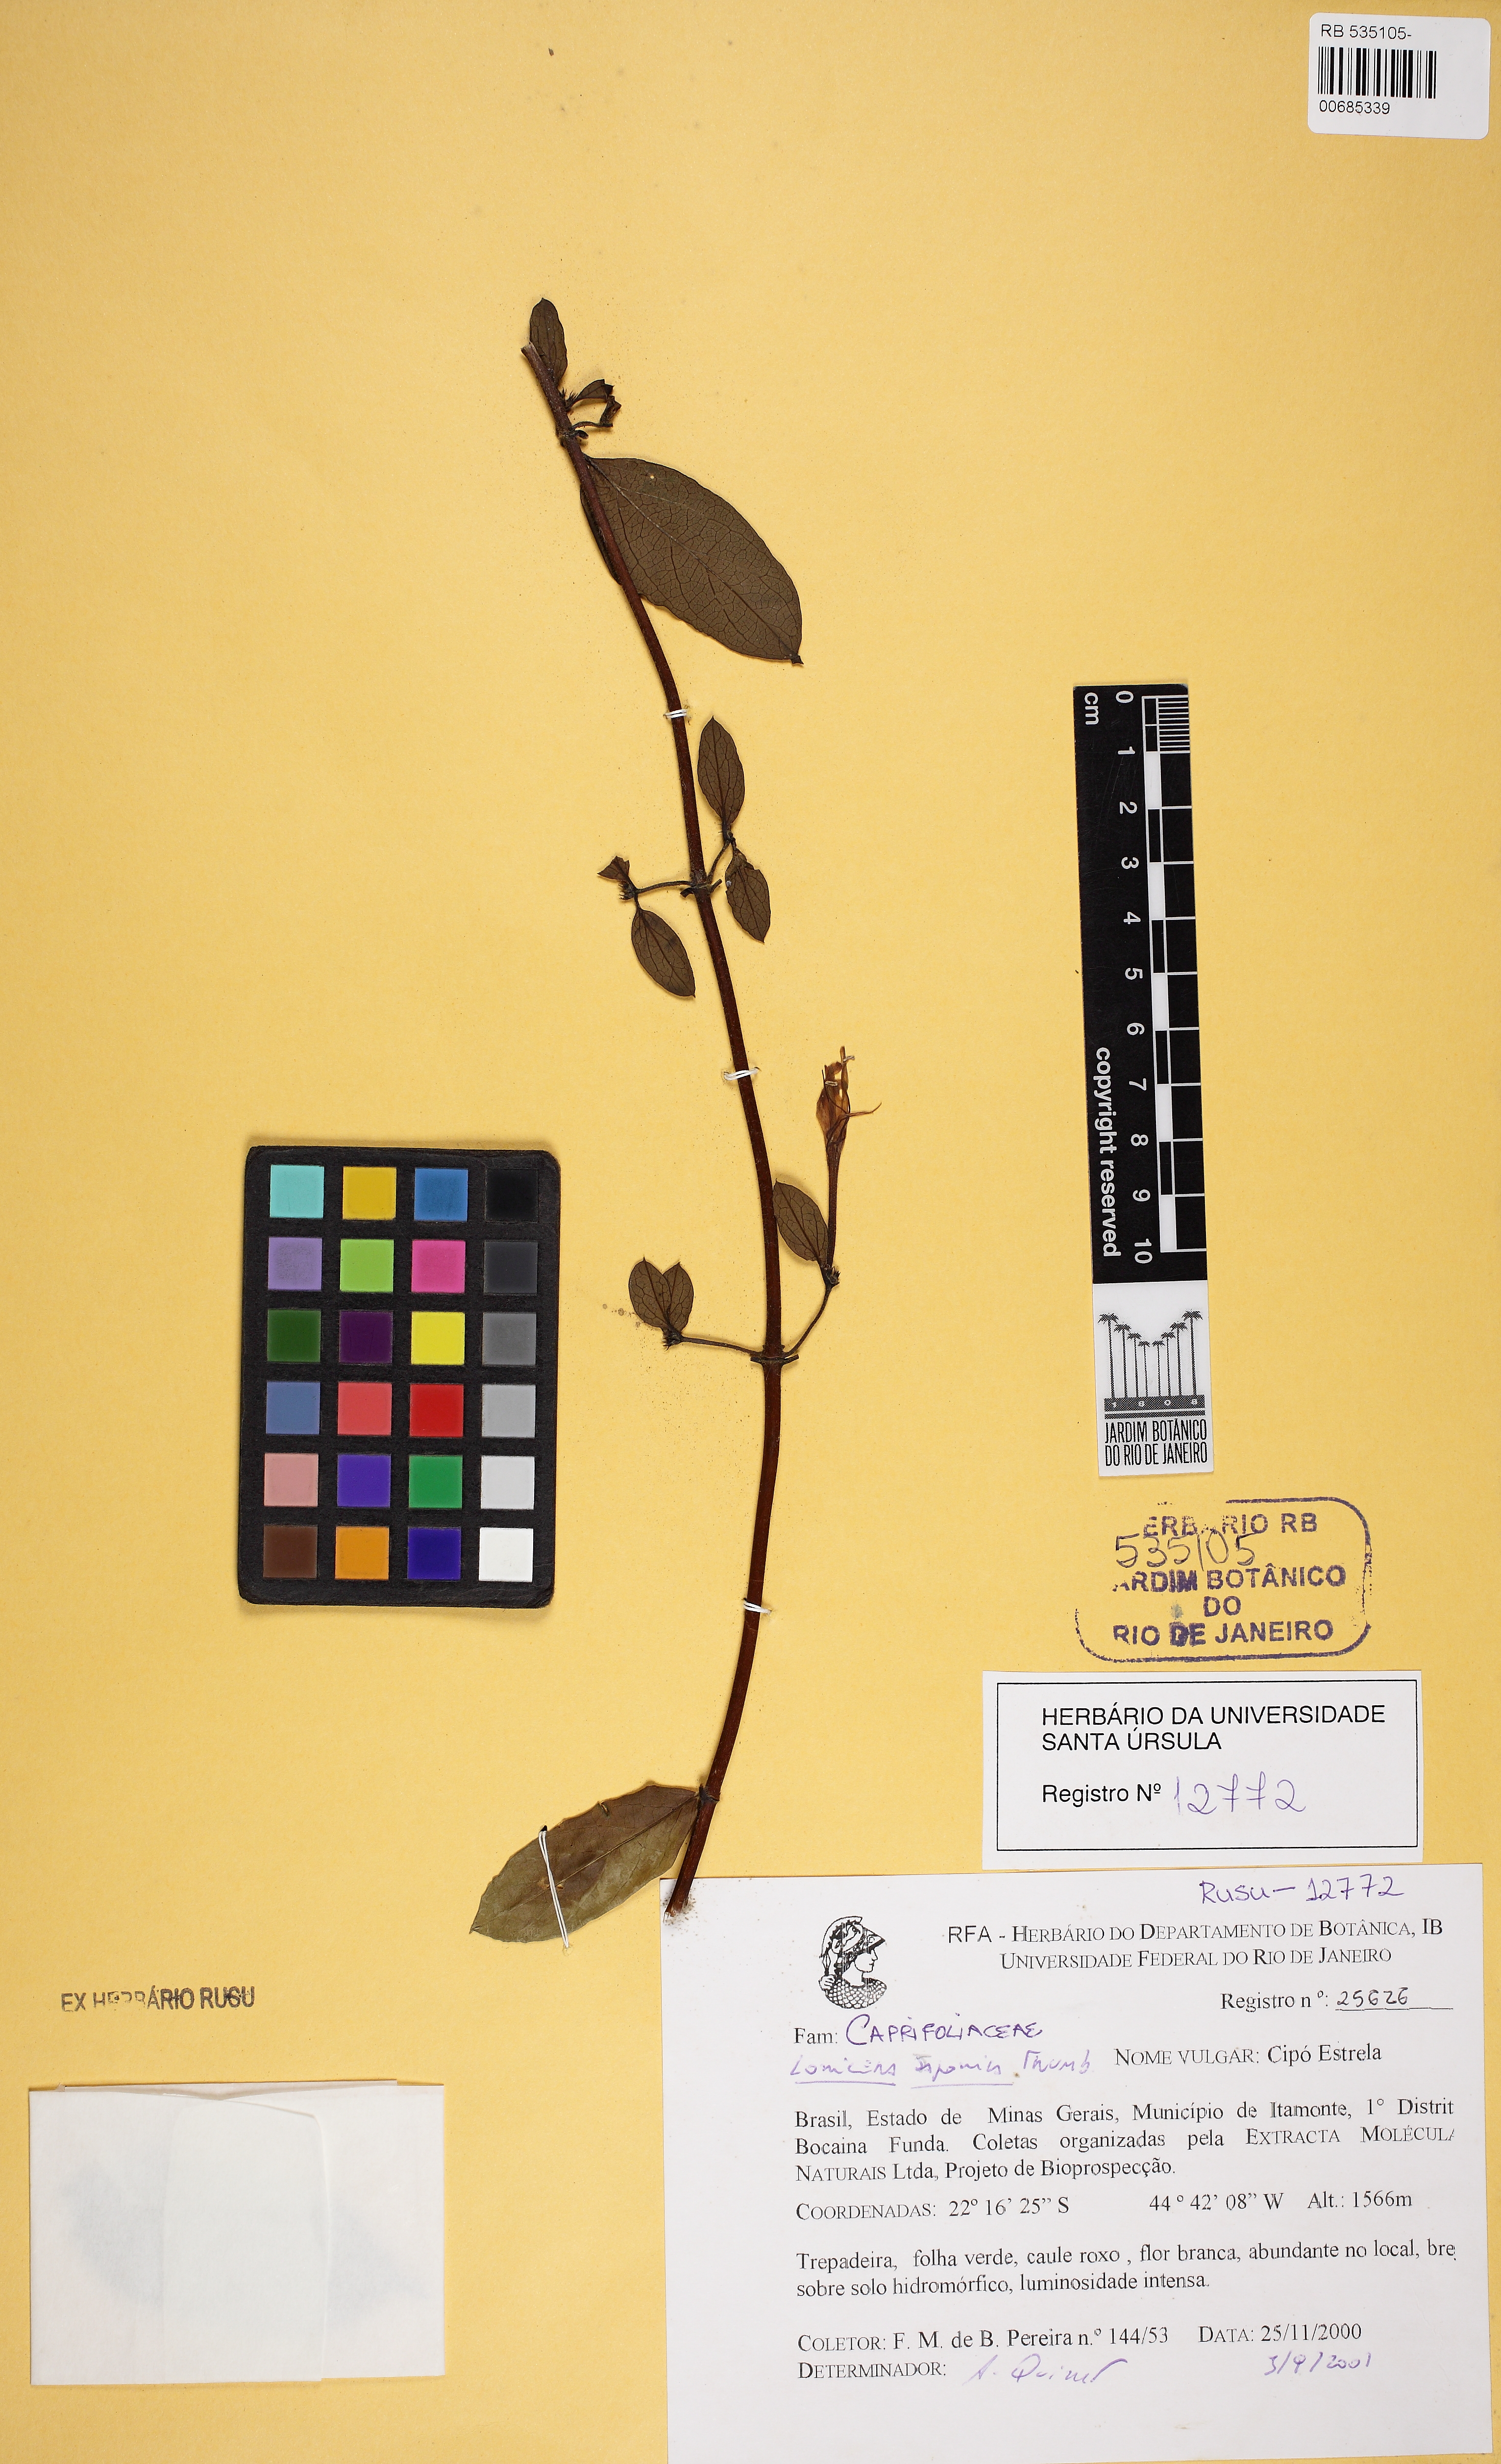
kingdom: Plantae
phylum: Tracheophyta
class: Magnoliopsida
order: Dipsacales
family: Caprifoliaceae
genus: Lonicera
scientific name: Lonicera japonica
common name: Japanese honeysuckle
